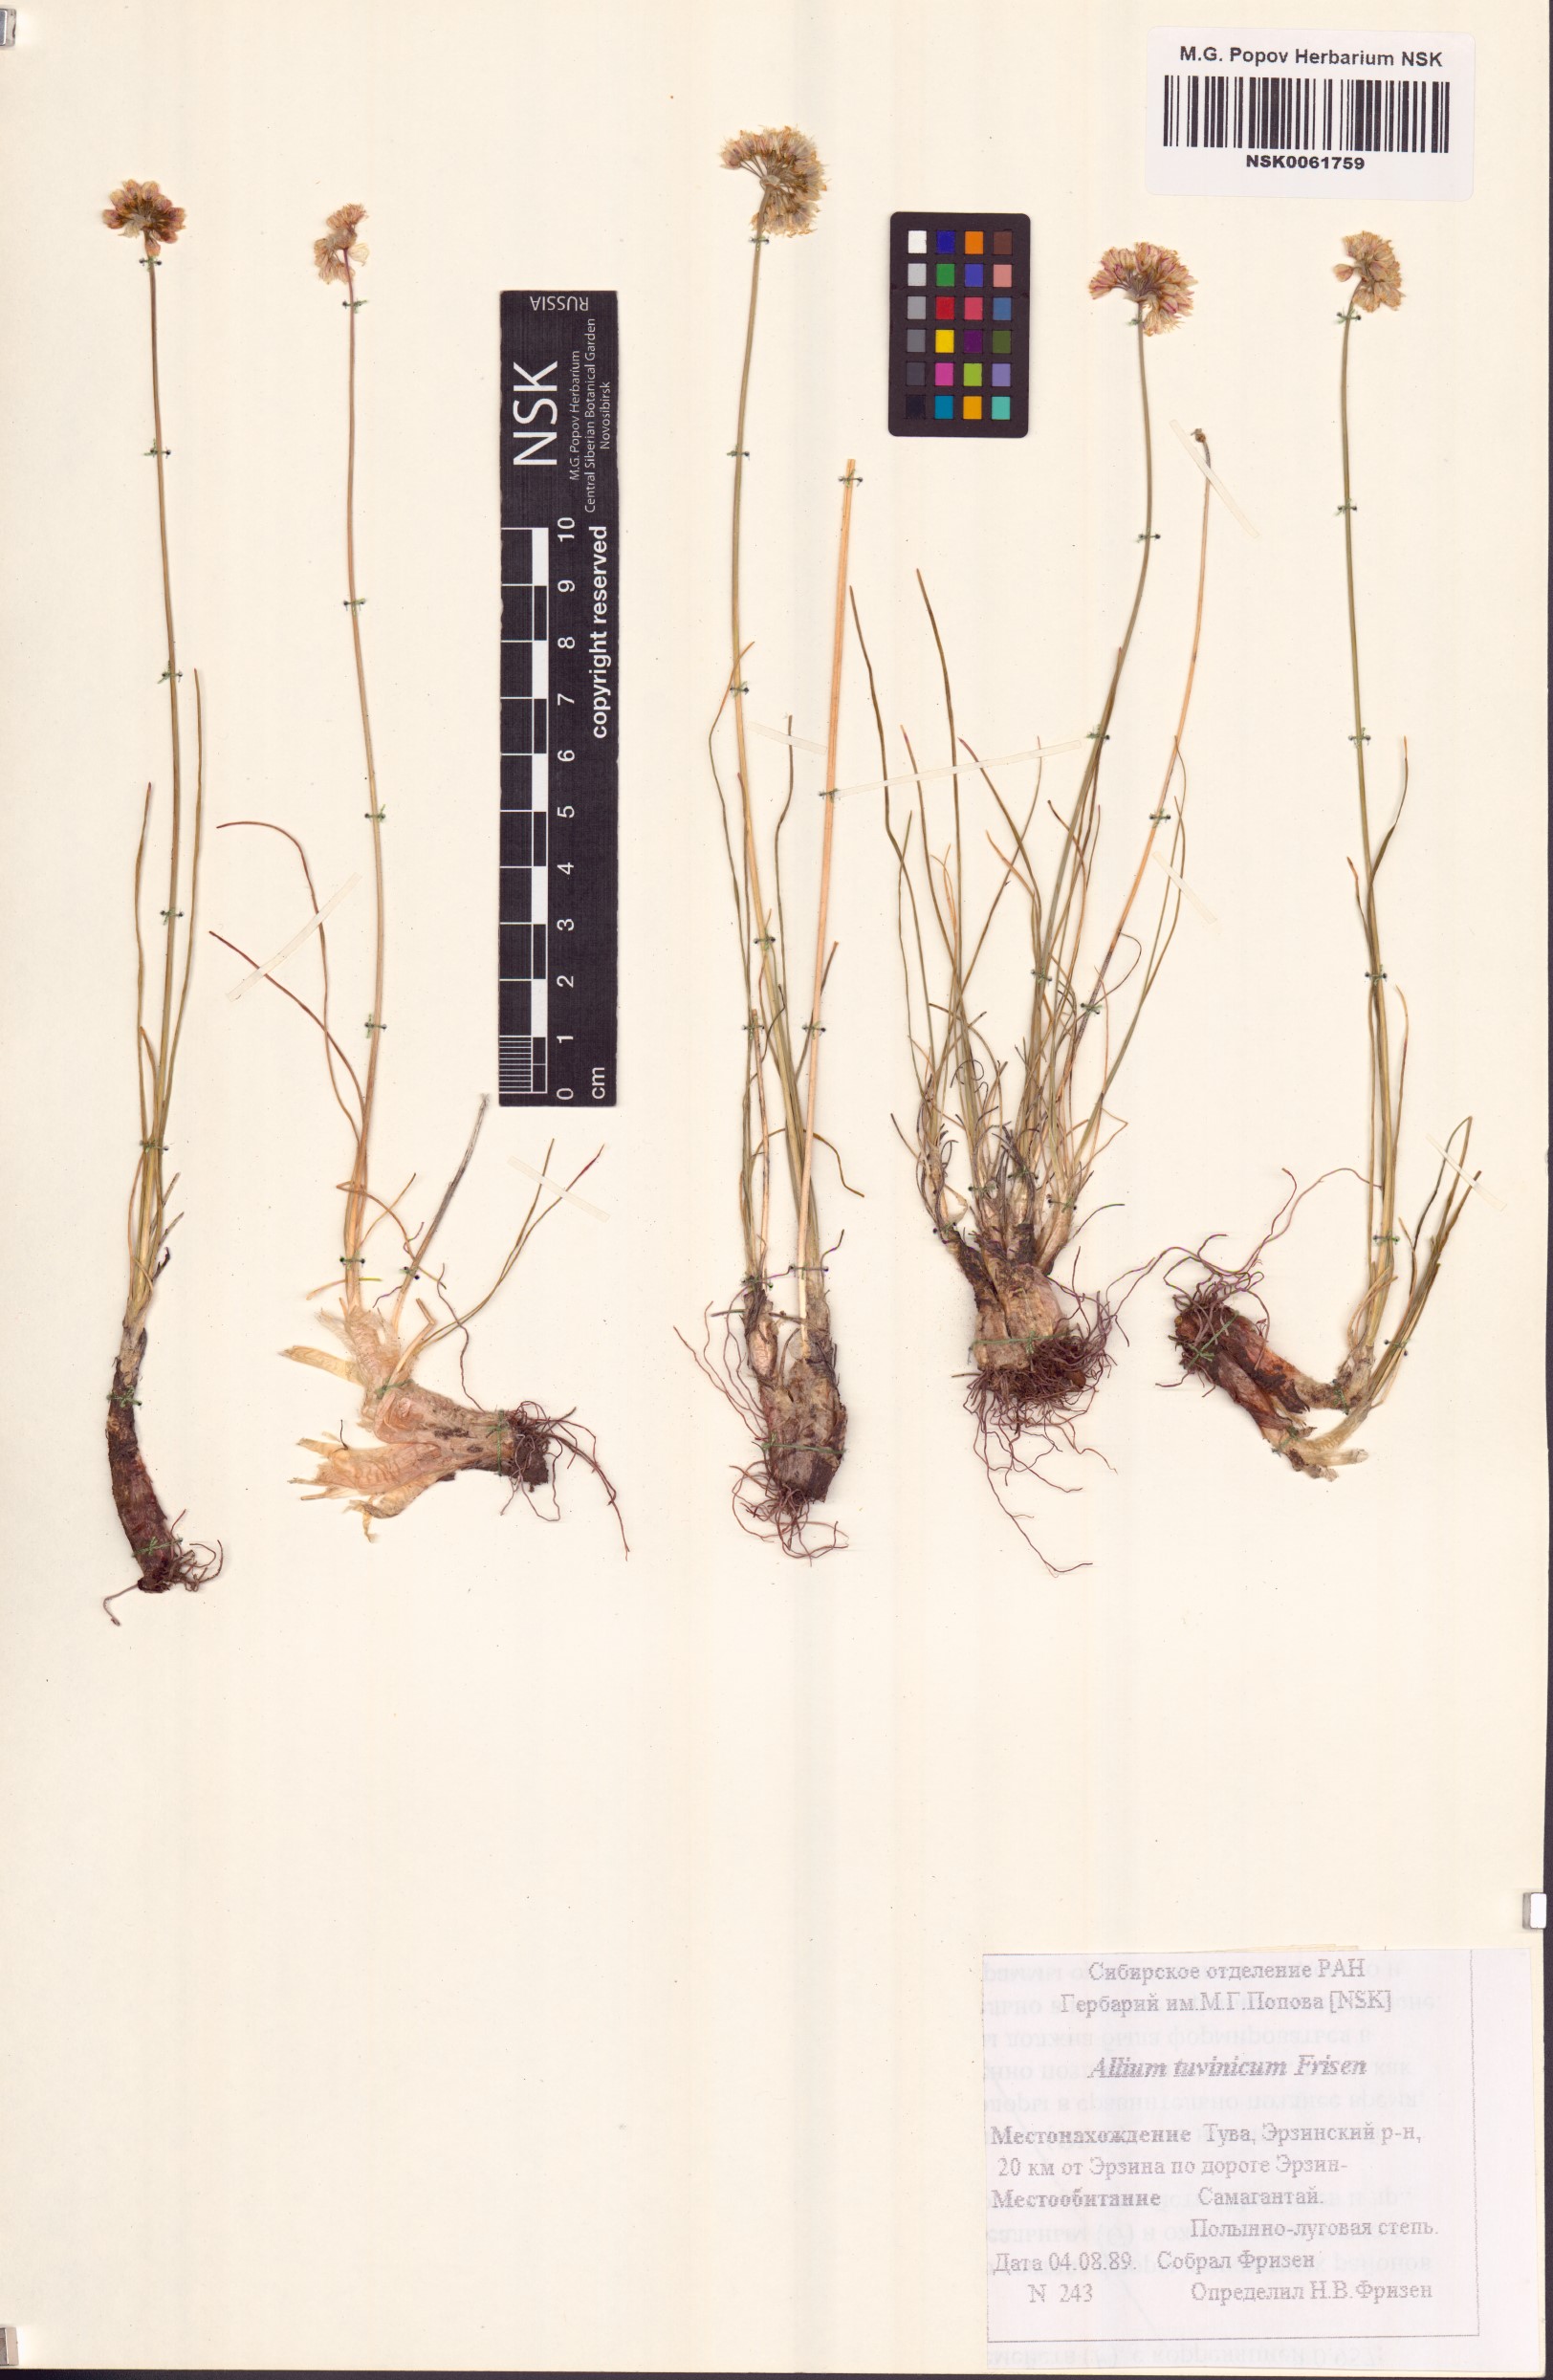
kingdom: Plantae
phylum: Tracheophyta
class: Liliopsida
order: Asparagales
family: Amaryllidaceae
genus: Allium
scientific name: Allium tuvinicum
